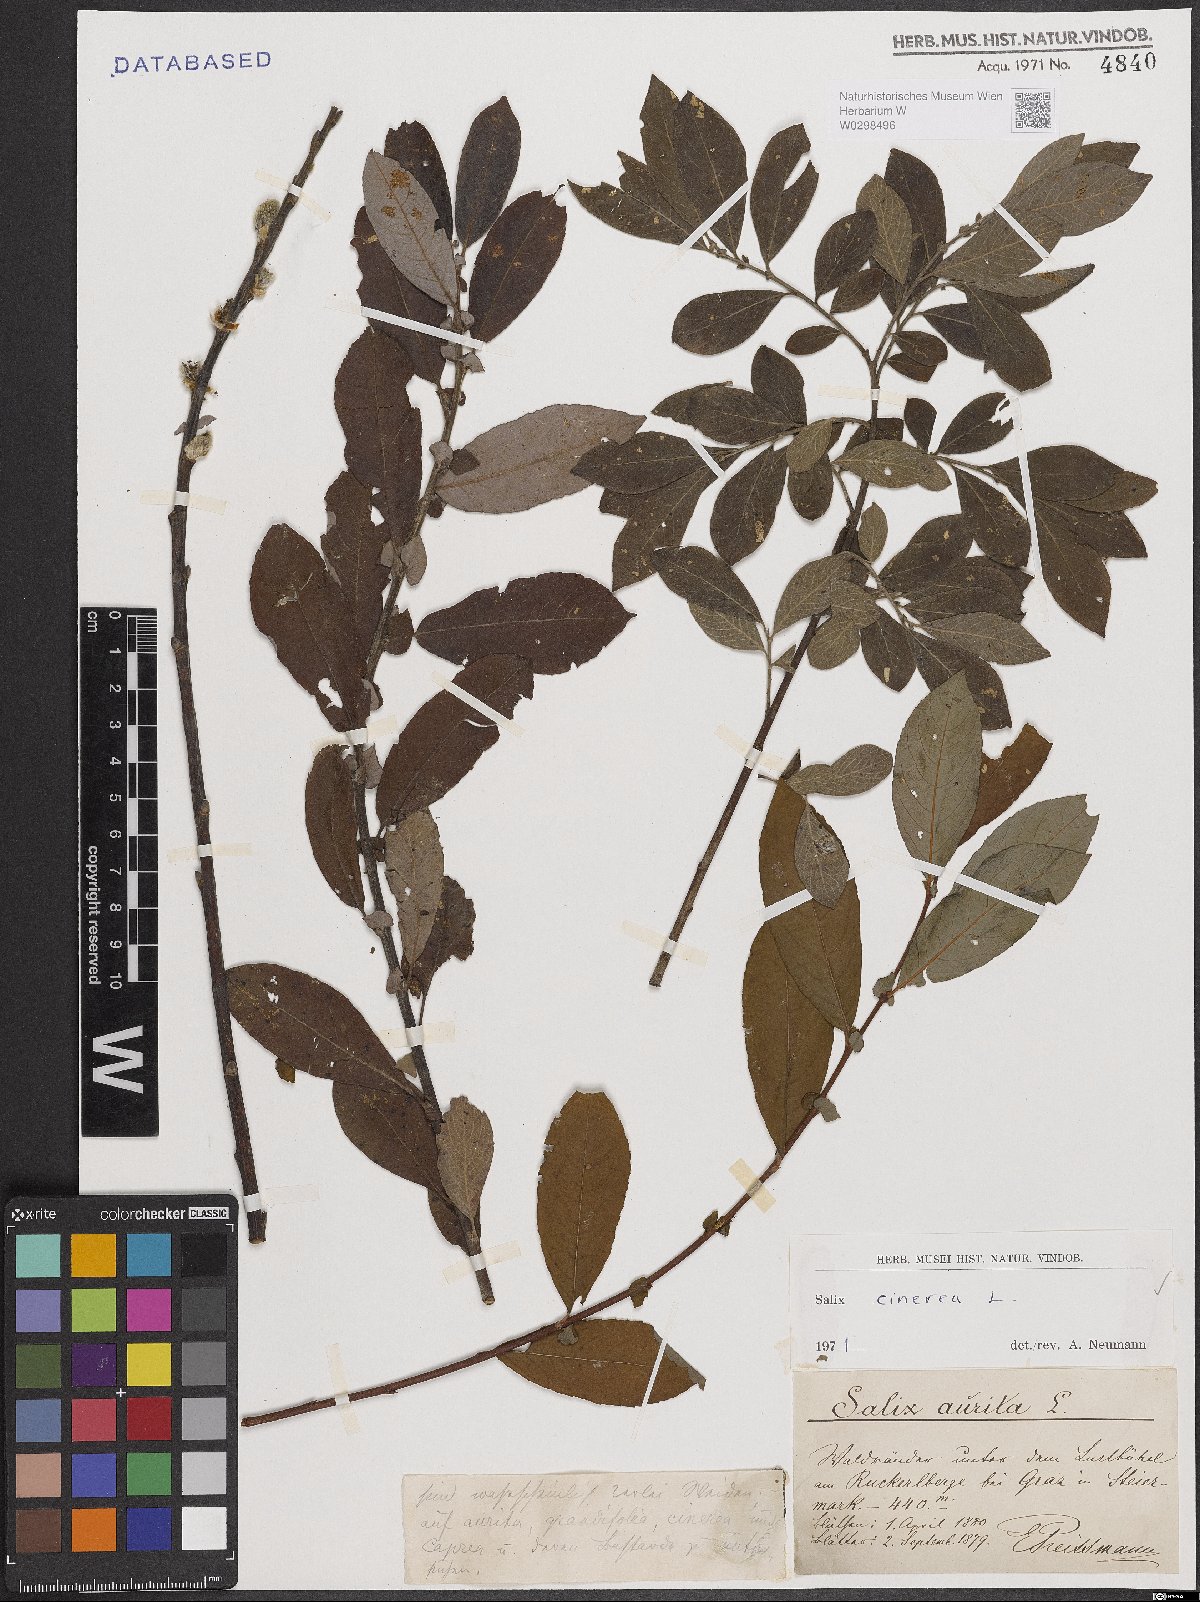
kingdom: Plantae
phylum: Tracheophyta
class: Magnoliopsida
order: Malpighiales
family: Salicaceae
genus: Salix
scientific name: Salix cinerea
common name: Common sallow
